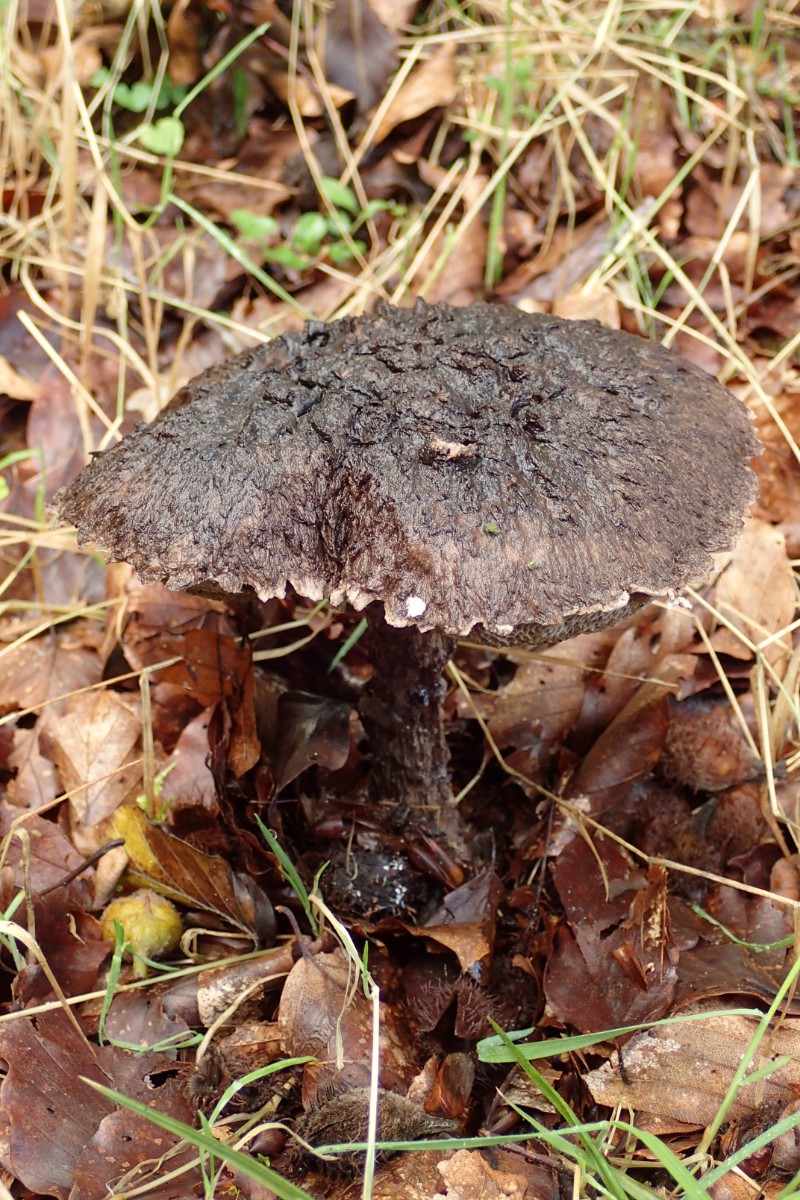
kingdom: Fungi
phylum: Basidiomycota
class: Agaricomycetes
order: Boletales
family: Boletaceae
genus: Strobilomyces
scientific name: Strobilomyces strobilaceus
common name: koglerørhat
